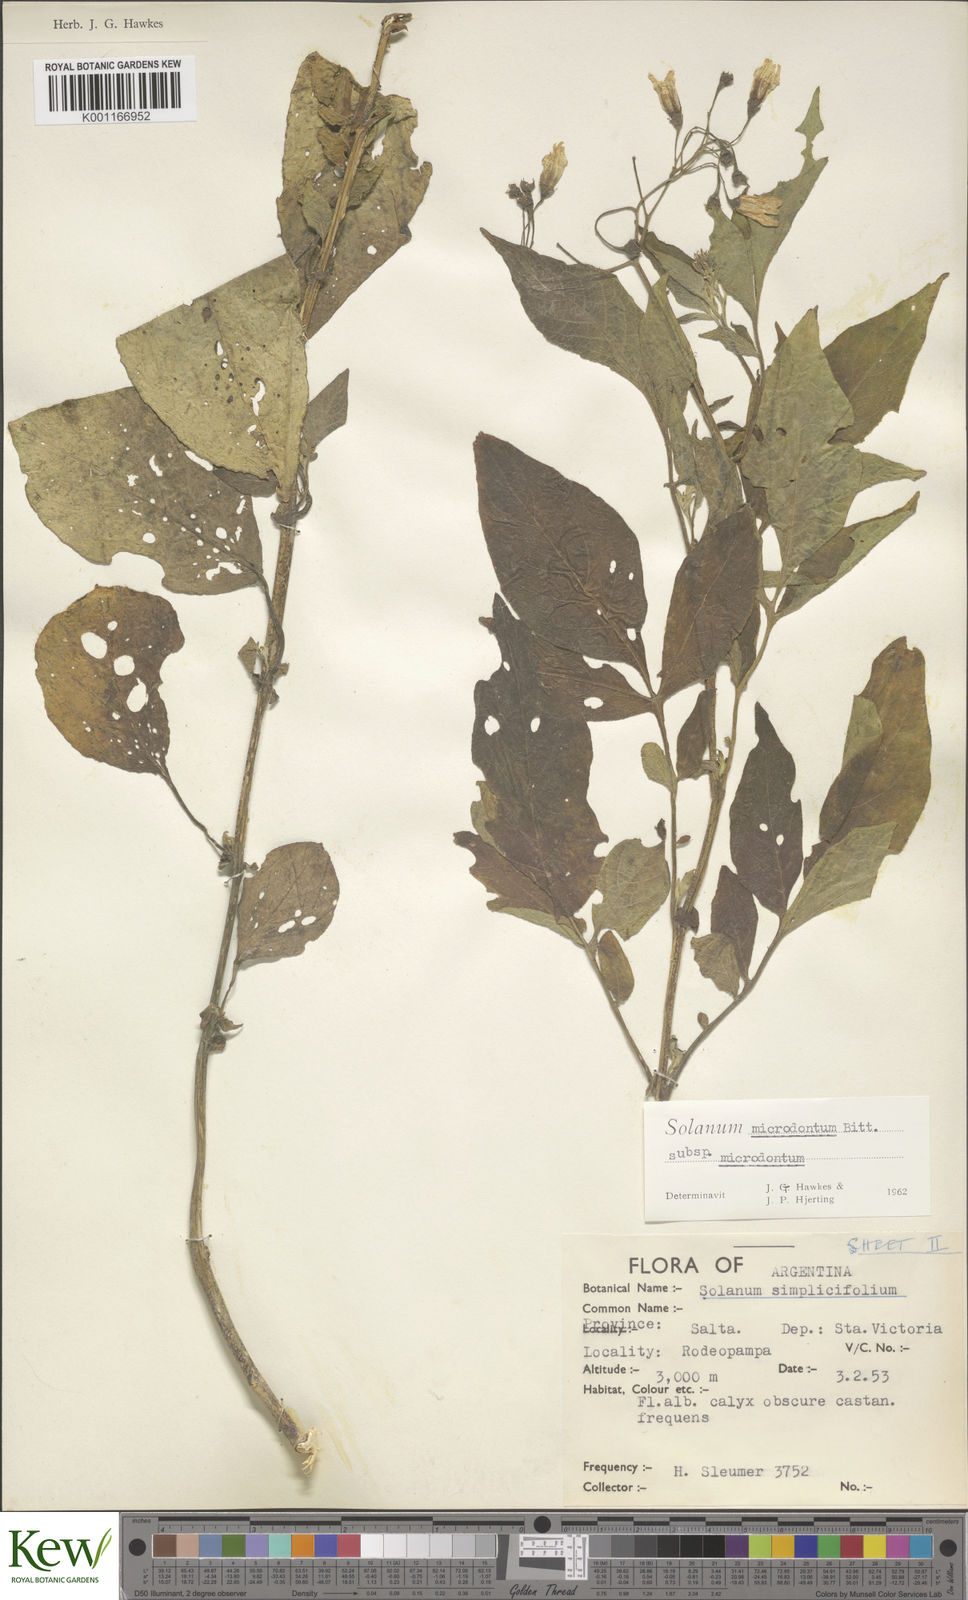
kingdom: Plantae
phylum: Tracheophyta
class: Magnoliopsida
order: Solanales
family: Solanaceae
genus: Solanum
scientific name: Solanum microdontum
